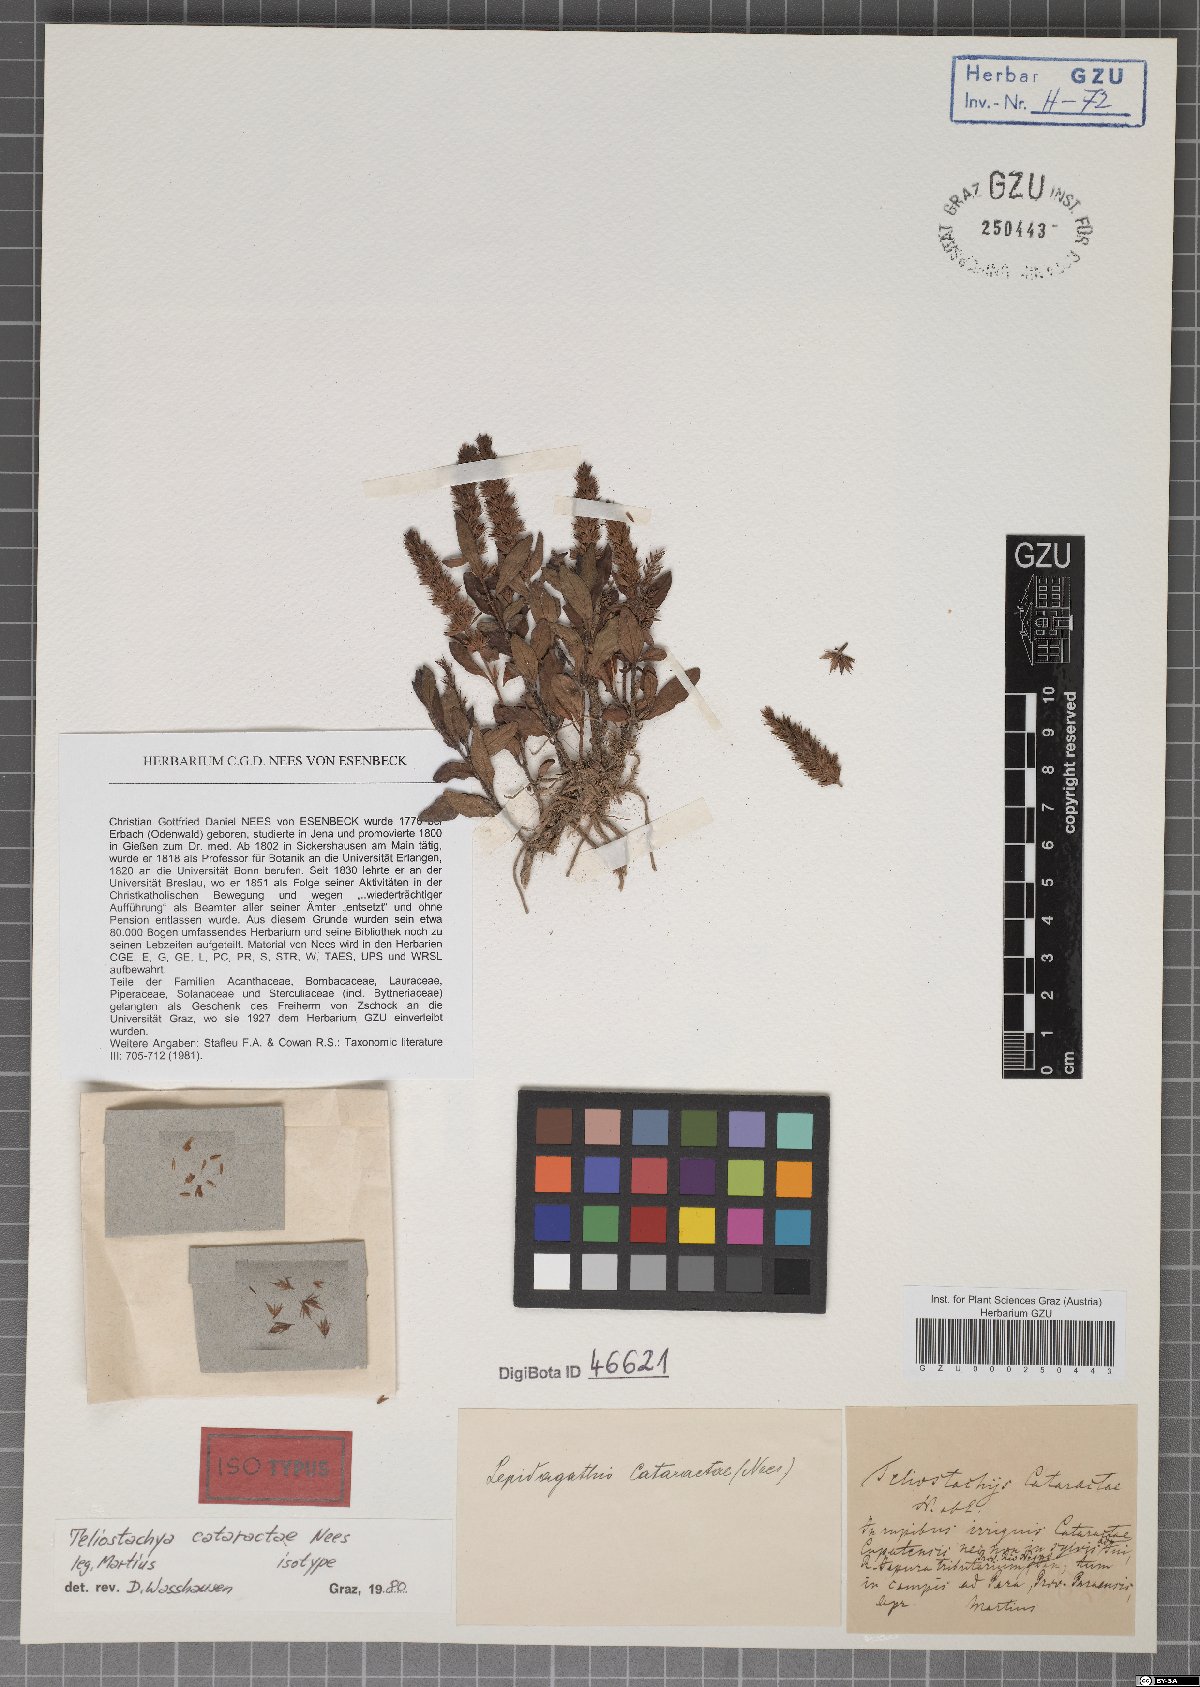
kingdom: Plantae
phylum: Tracheophyta
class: Magnoliopsida
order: Lamiales
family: Acanthaceae
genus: Lepidagathis
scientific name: Lepidagathis cataractae
